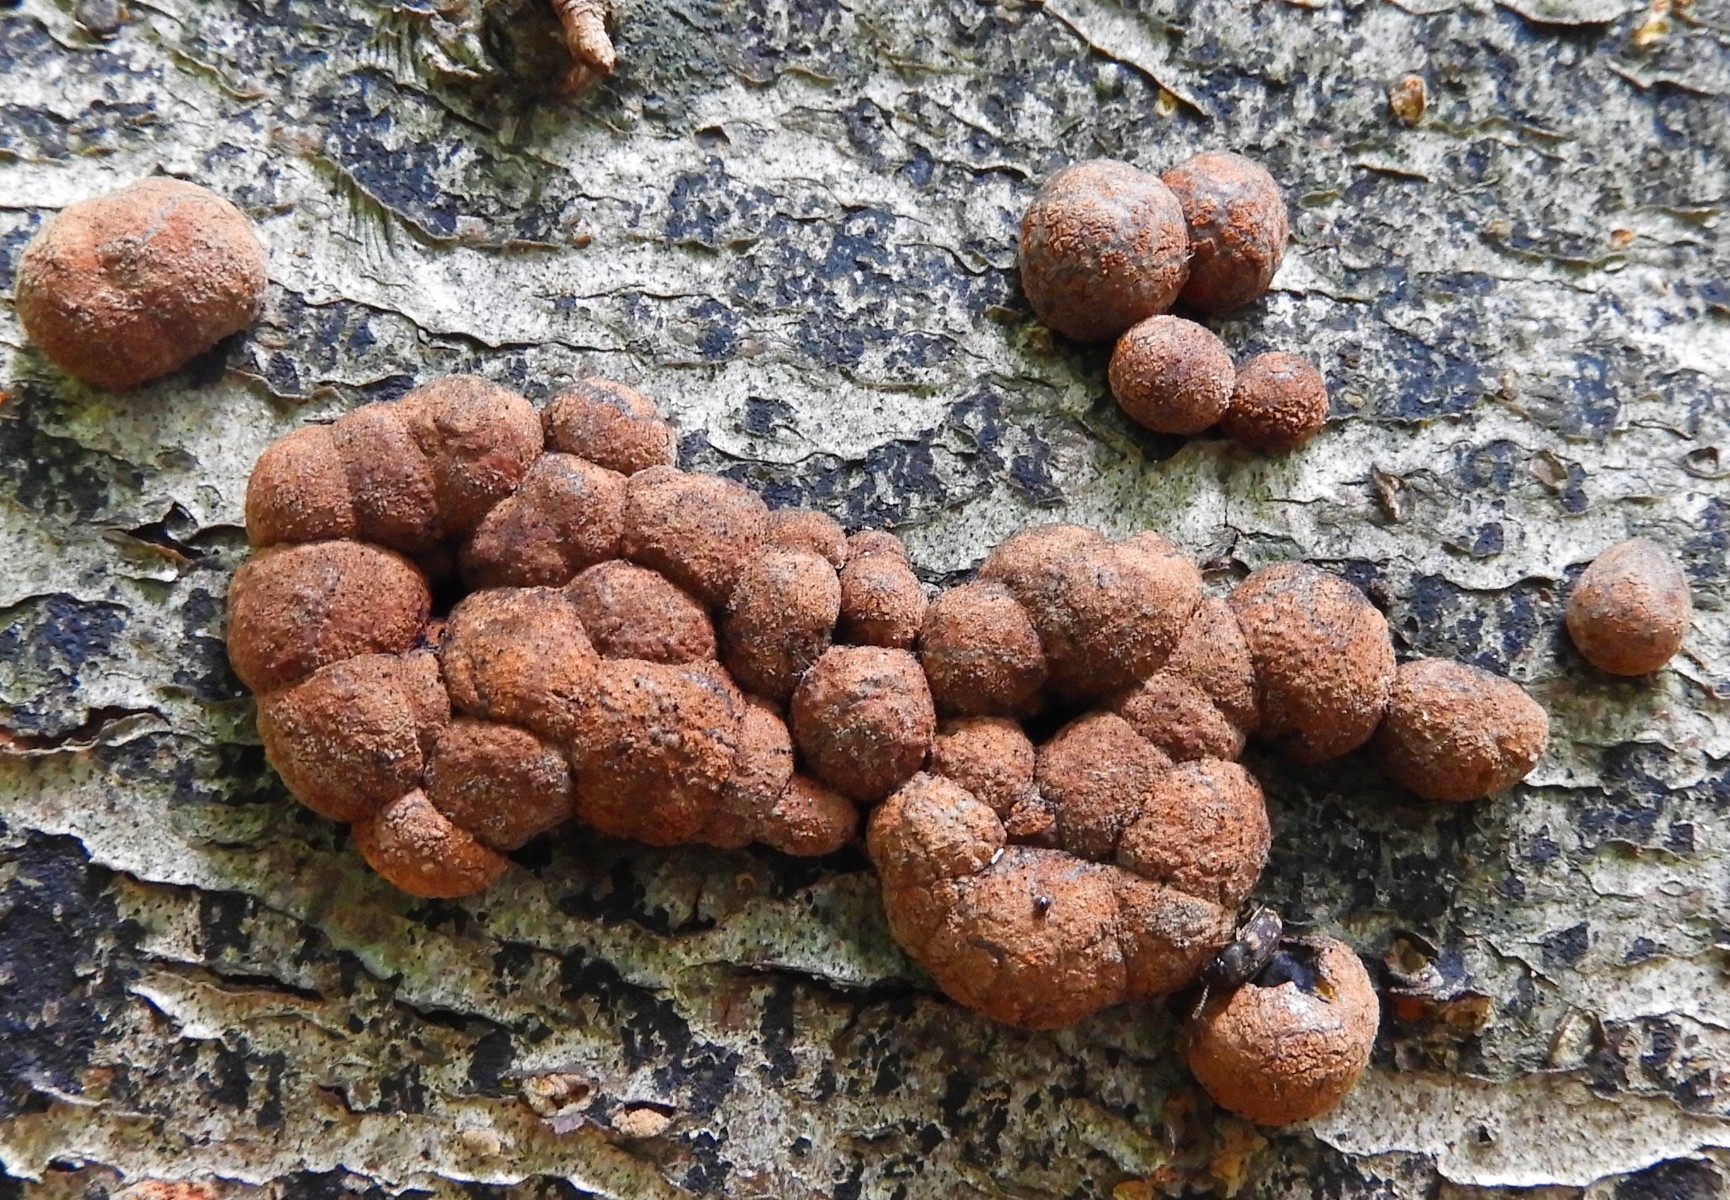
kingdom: Fungi
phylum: Ascomycota
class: Sordariomycetes
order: Xylariales
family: Hypoxylaceae
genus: Hypoxylon
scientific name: Hypoxylon fragiforme
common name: kuljordbær
